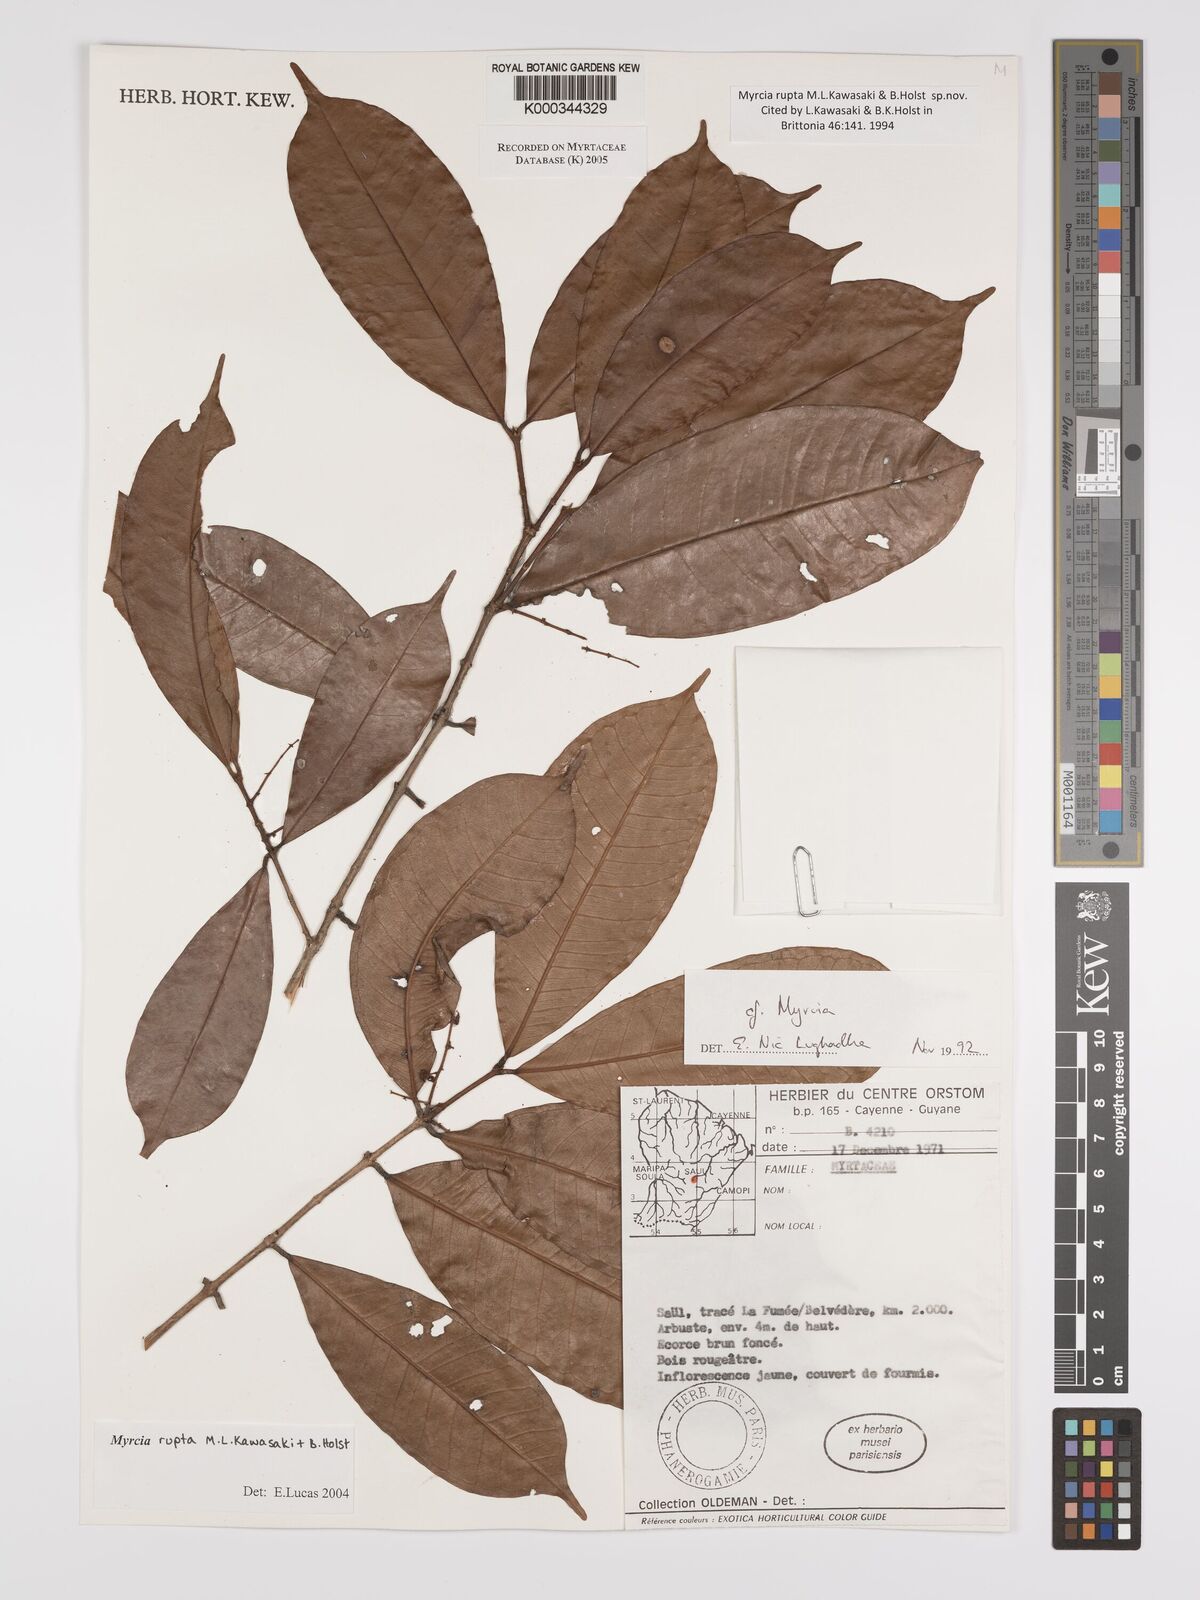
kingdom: Plantae
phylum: Tracheophyta
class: Magnoliopsida
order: Myrtales
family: Myrtaceae
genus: Myrcia
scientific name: Myrcia rupta
